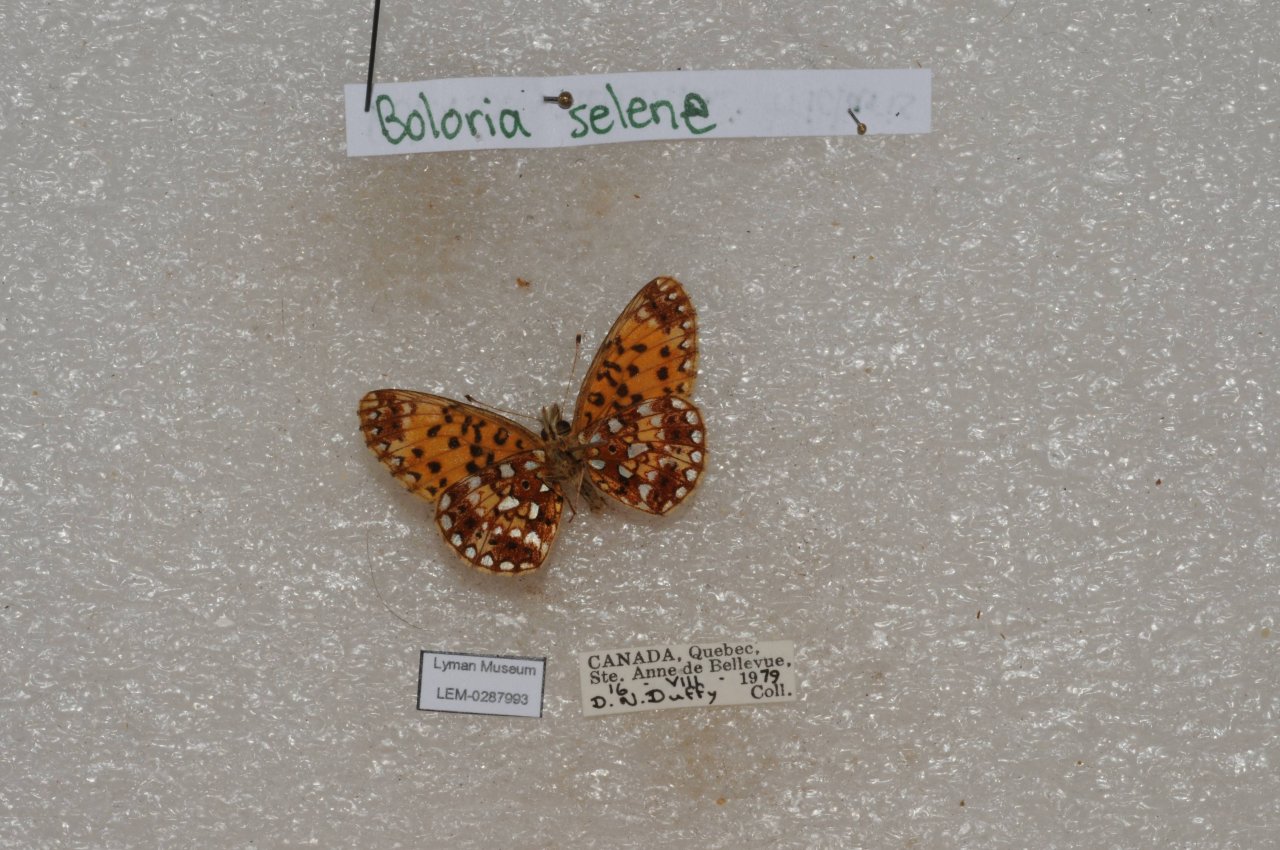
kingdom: Animalia
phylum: Arthropoda
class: Insecta
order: Lepidoptera
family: Nymphalidae
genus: Boloria
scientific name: Boloria selene
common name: Silver-bordered Fritillary
